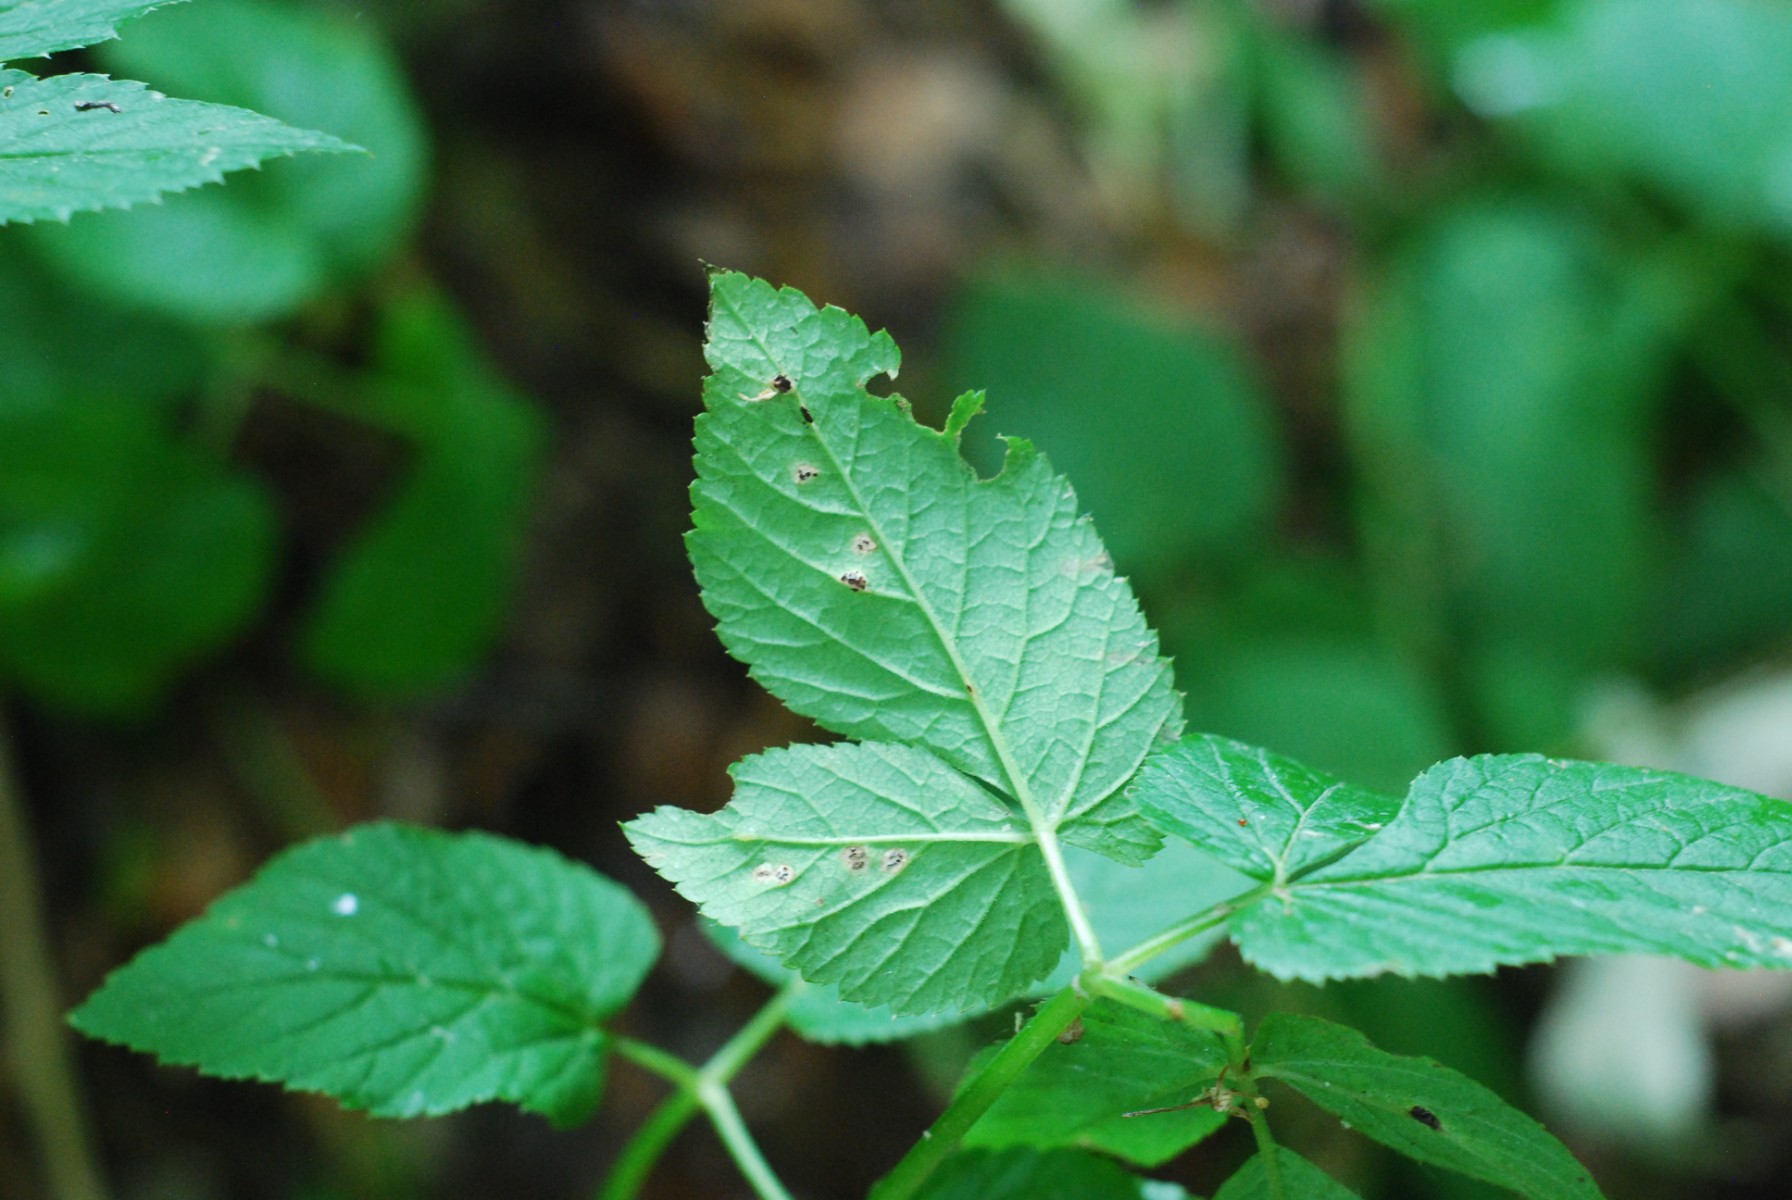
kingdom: Fungi
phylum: Basidiomycota
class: Pucciniomycetes
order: Pucciniales
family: Pucciniaceae
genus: Puccinia
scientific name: Puccinia
